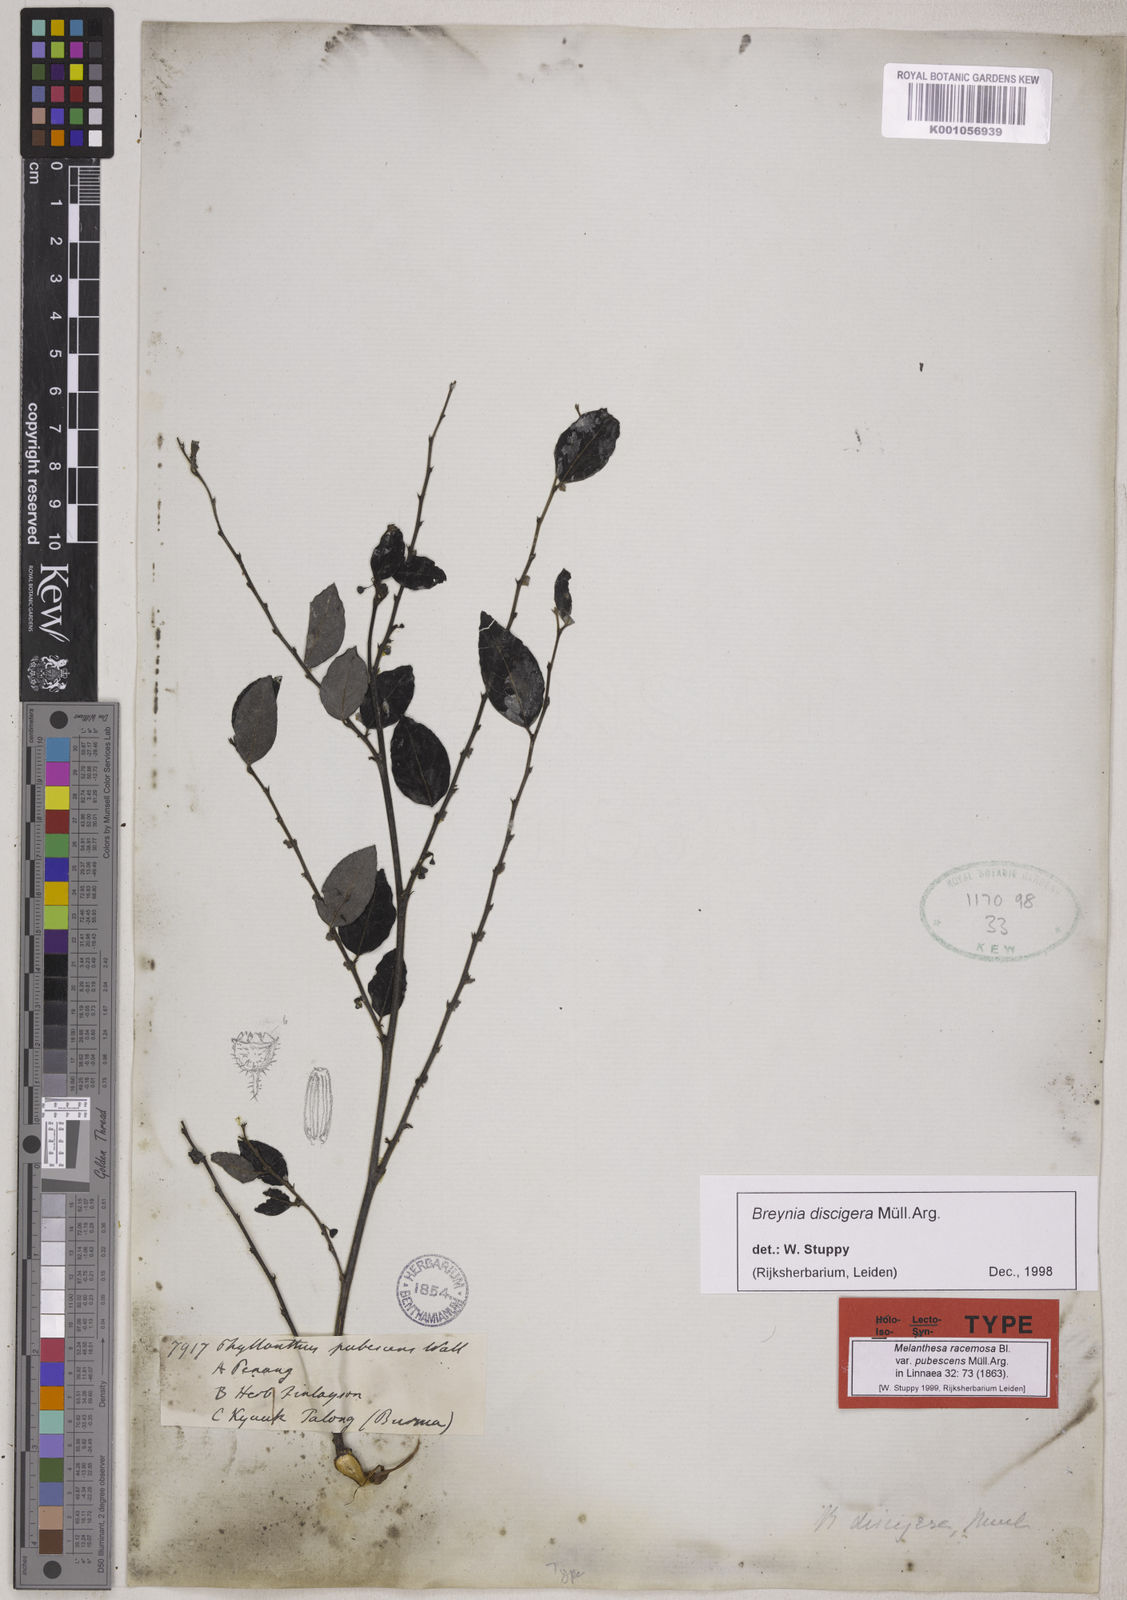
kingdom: Plantae
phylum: Tracheophyta
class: Magnoliopsida
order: Malpighiales
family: Phyllanthaceae
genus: Breynia
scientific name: Breynia
